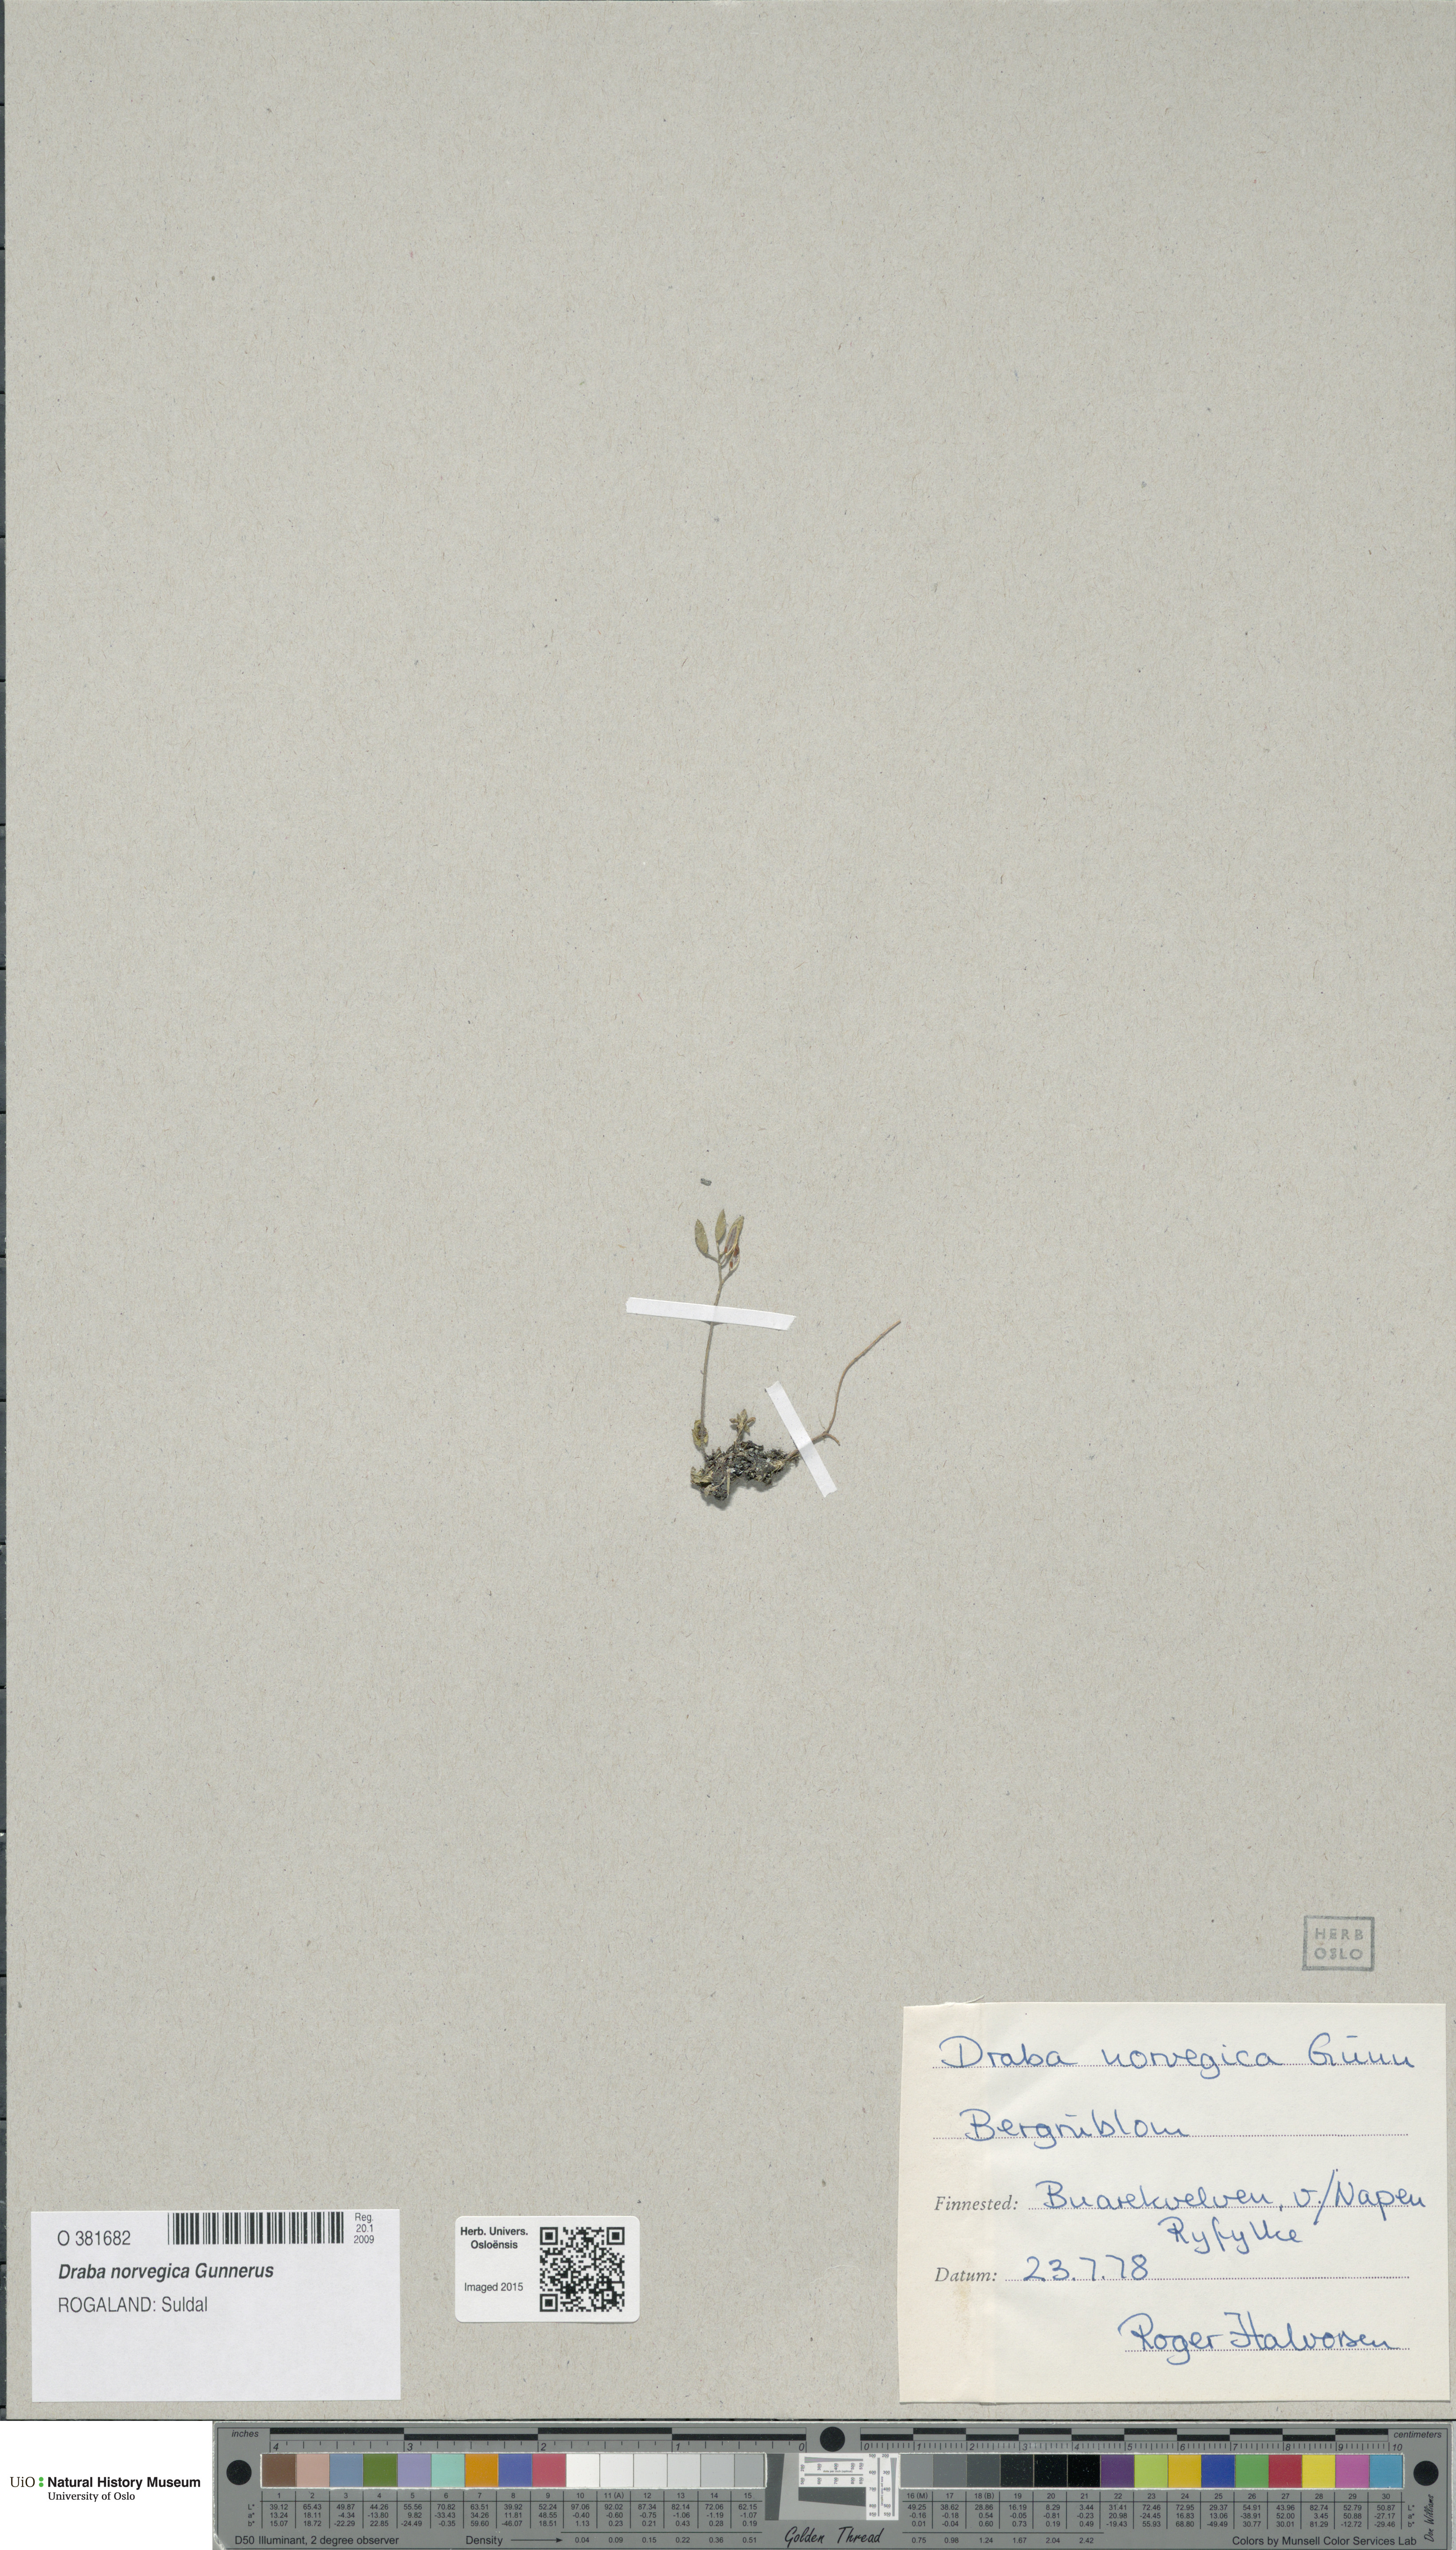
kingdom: Plantae
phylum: Tracheophyta
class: Magnoliopsida
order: Brassicales
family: Brassicaceae
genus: Draba
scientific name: Draba norvegica
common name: Rock whitlowgrass
